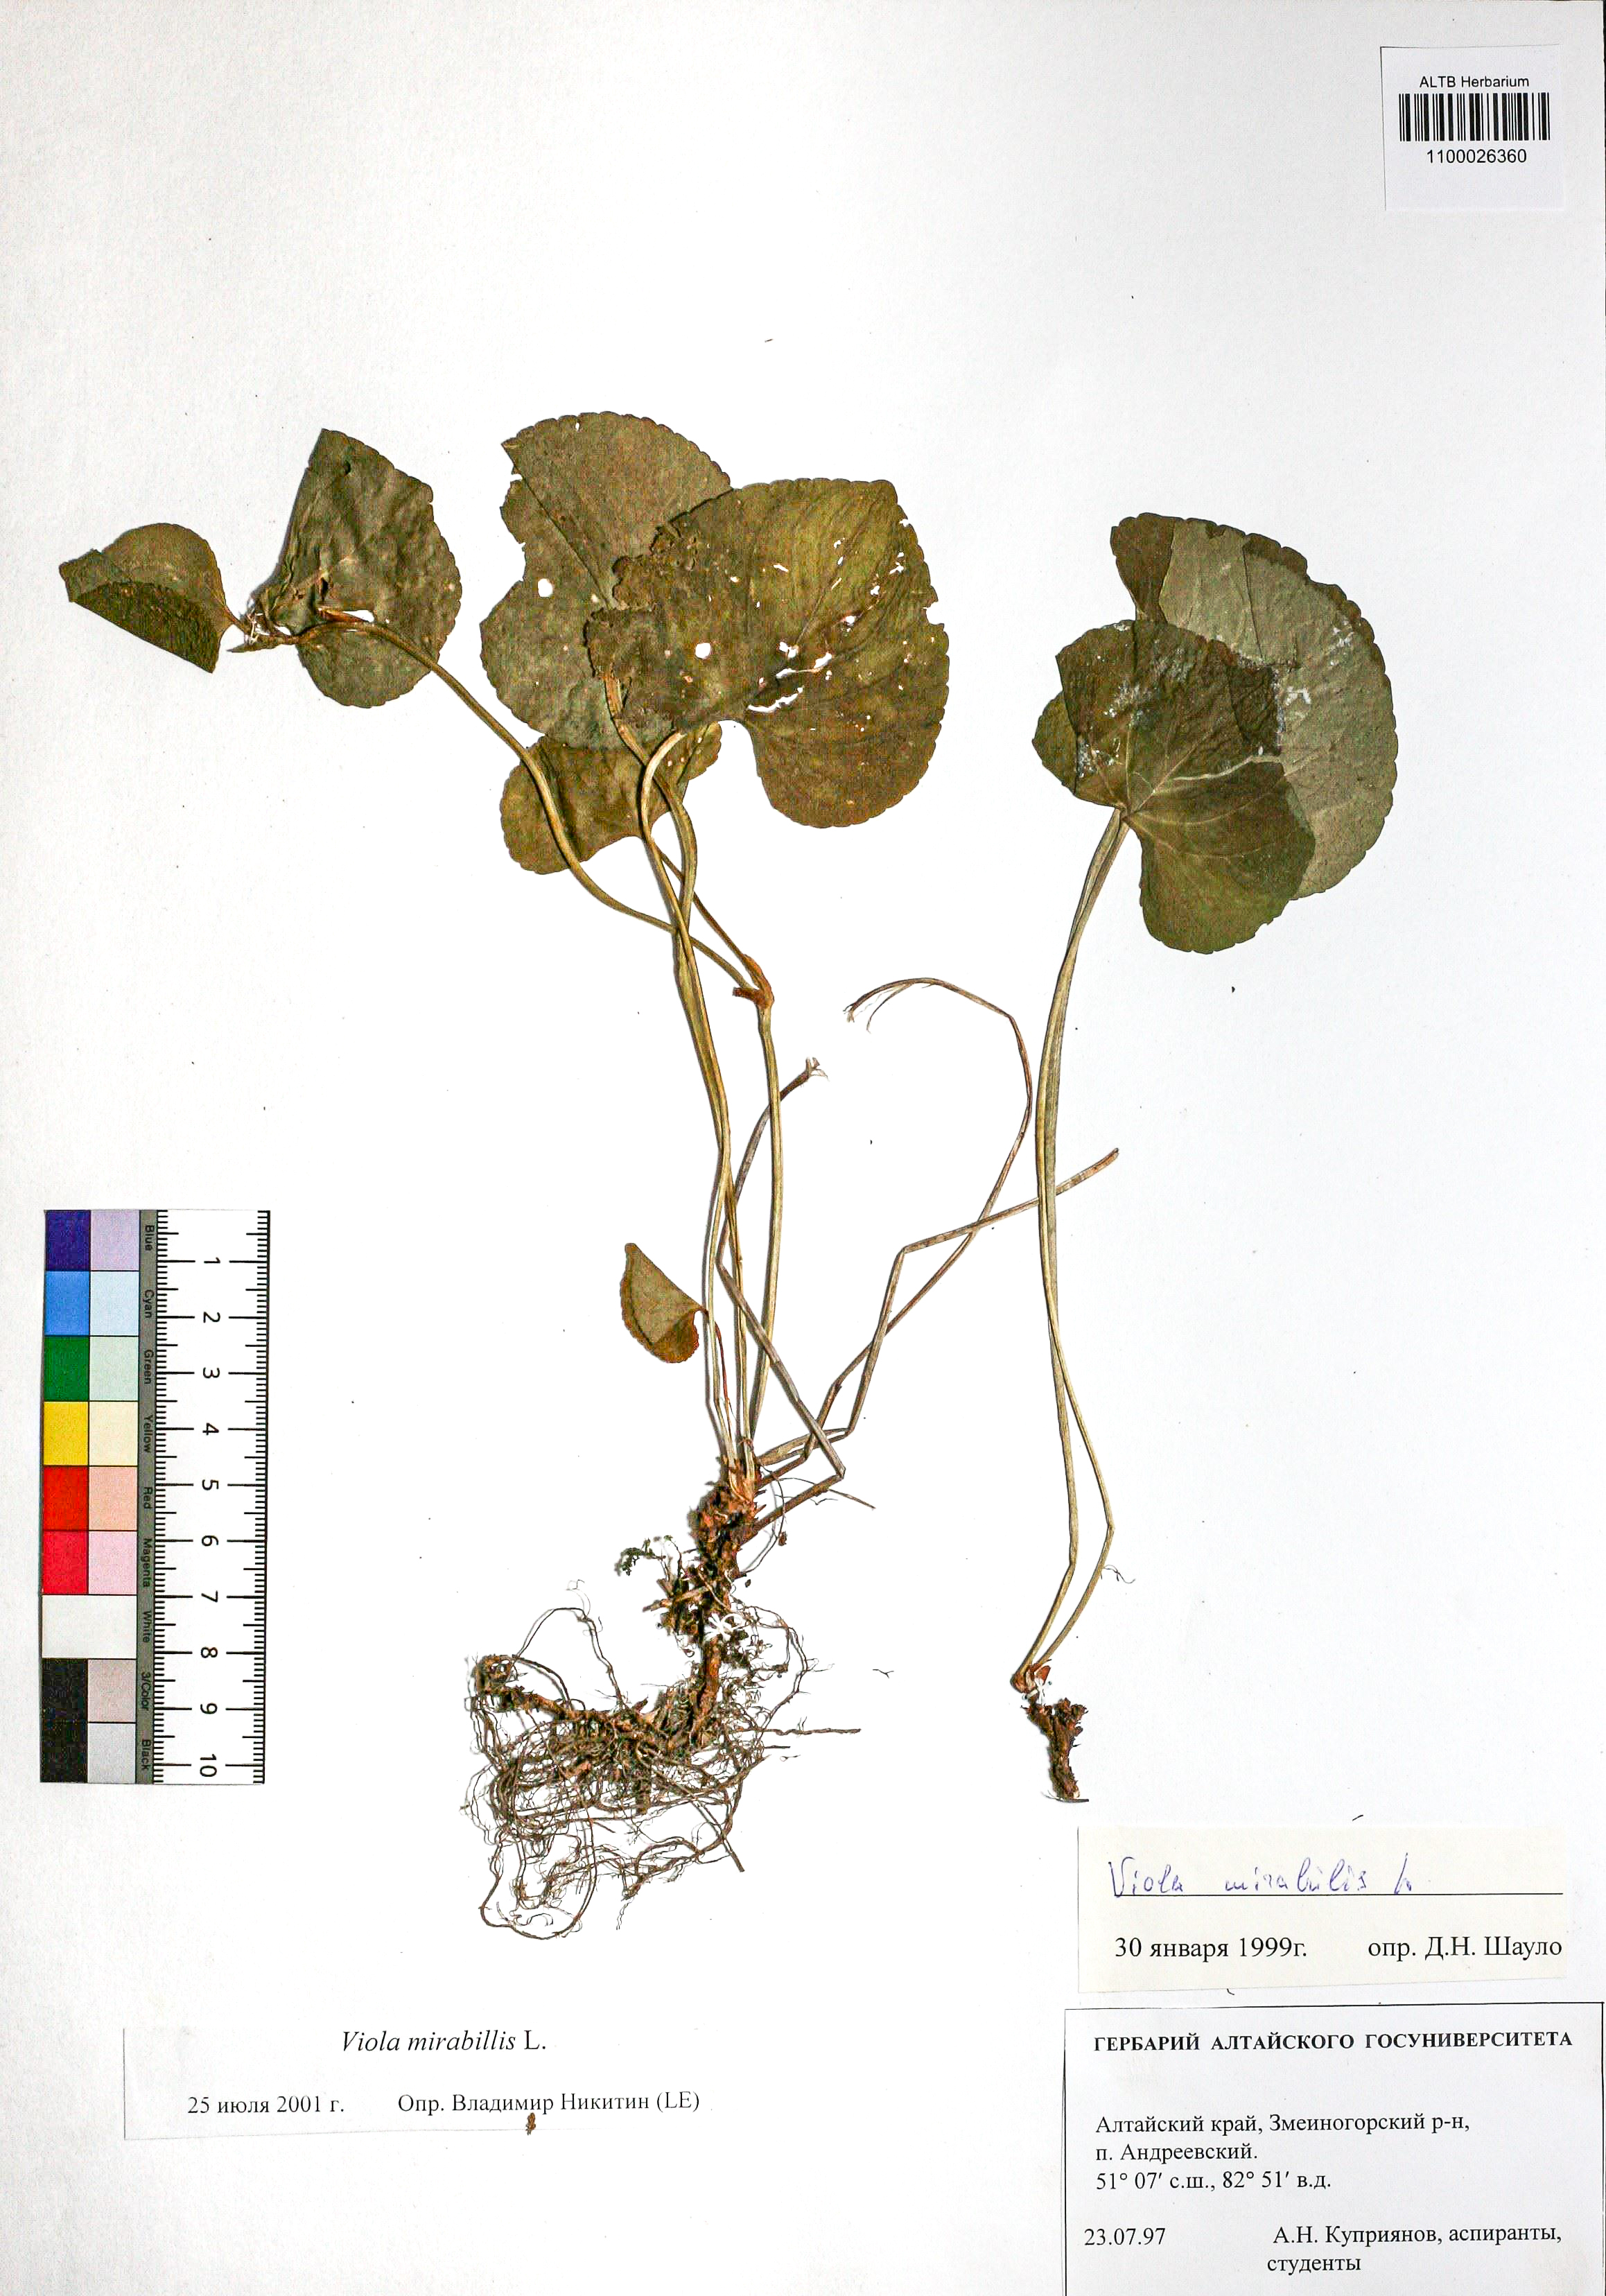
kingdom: Plantae
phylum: Tracheophyta
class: Magnoliopsida
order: Malpighiales
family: Violaceae
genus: Viola
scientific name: Viola mirabilis
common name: Wonder violet
